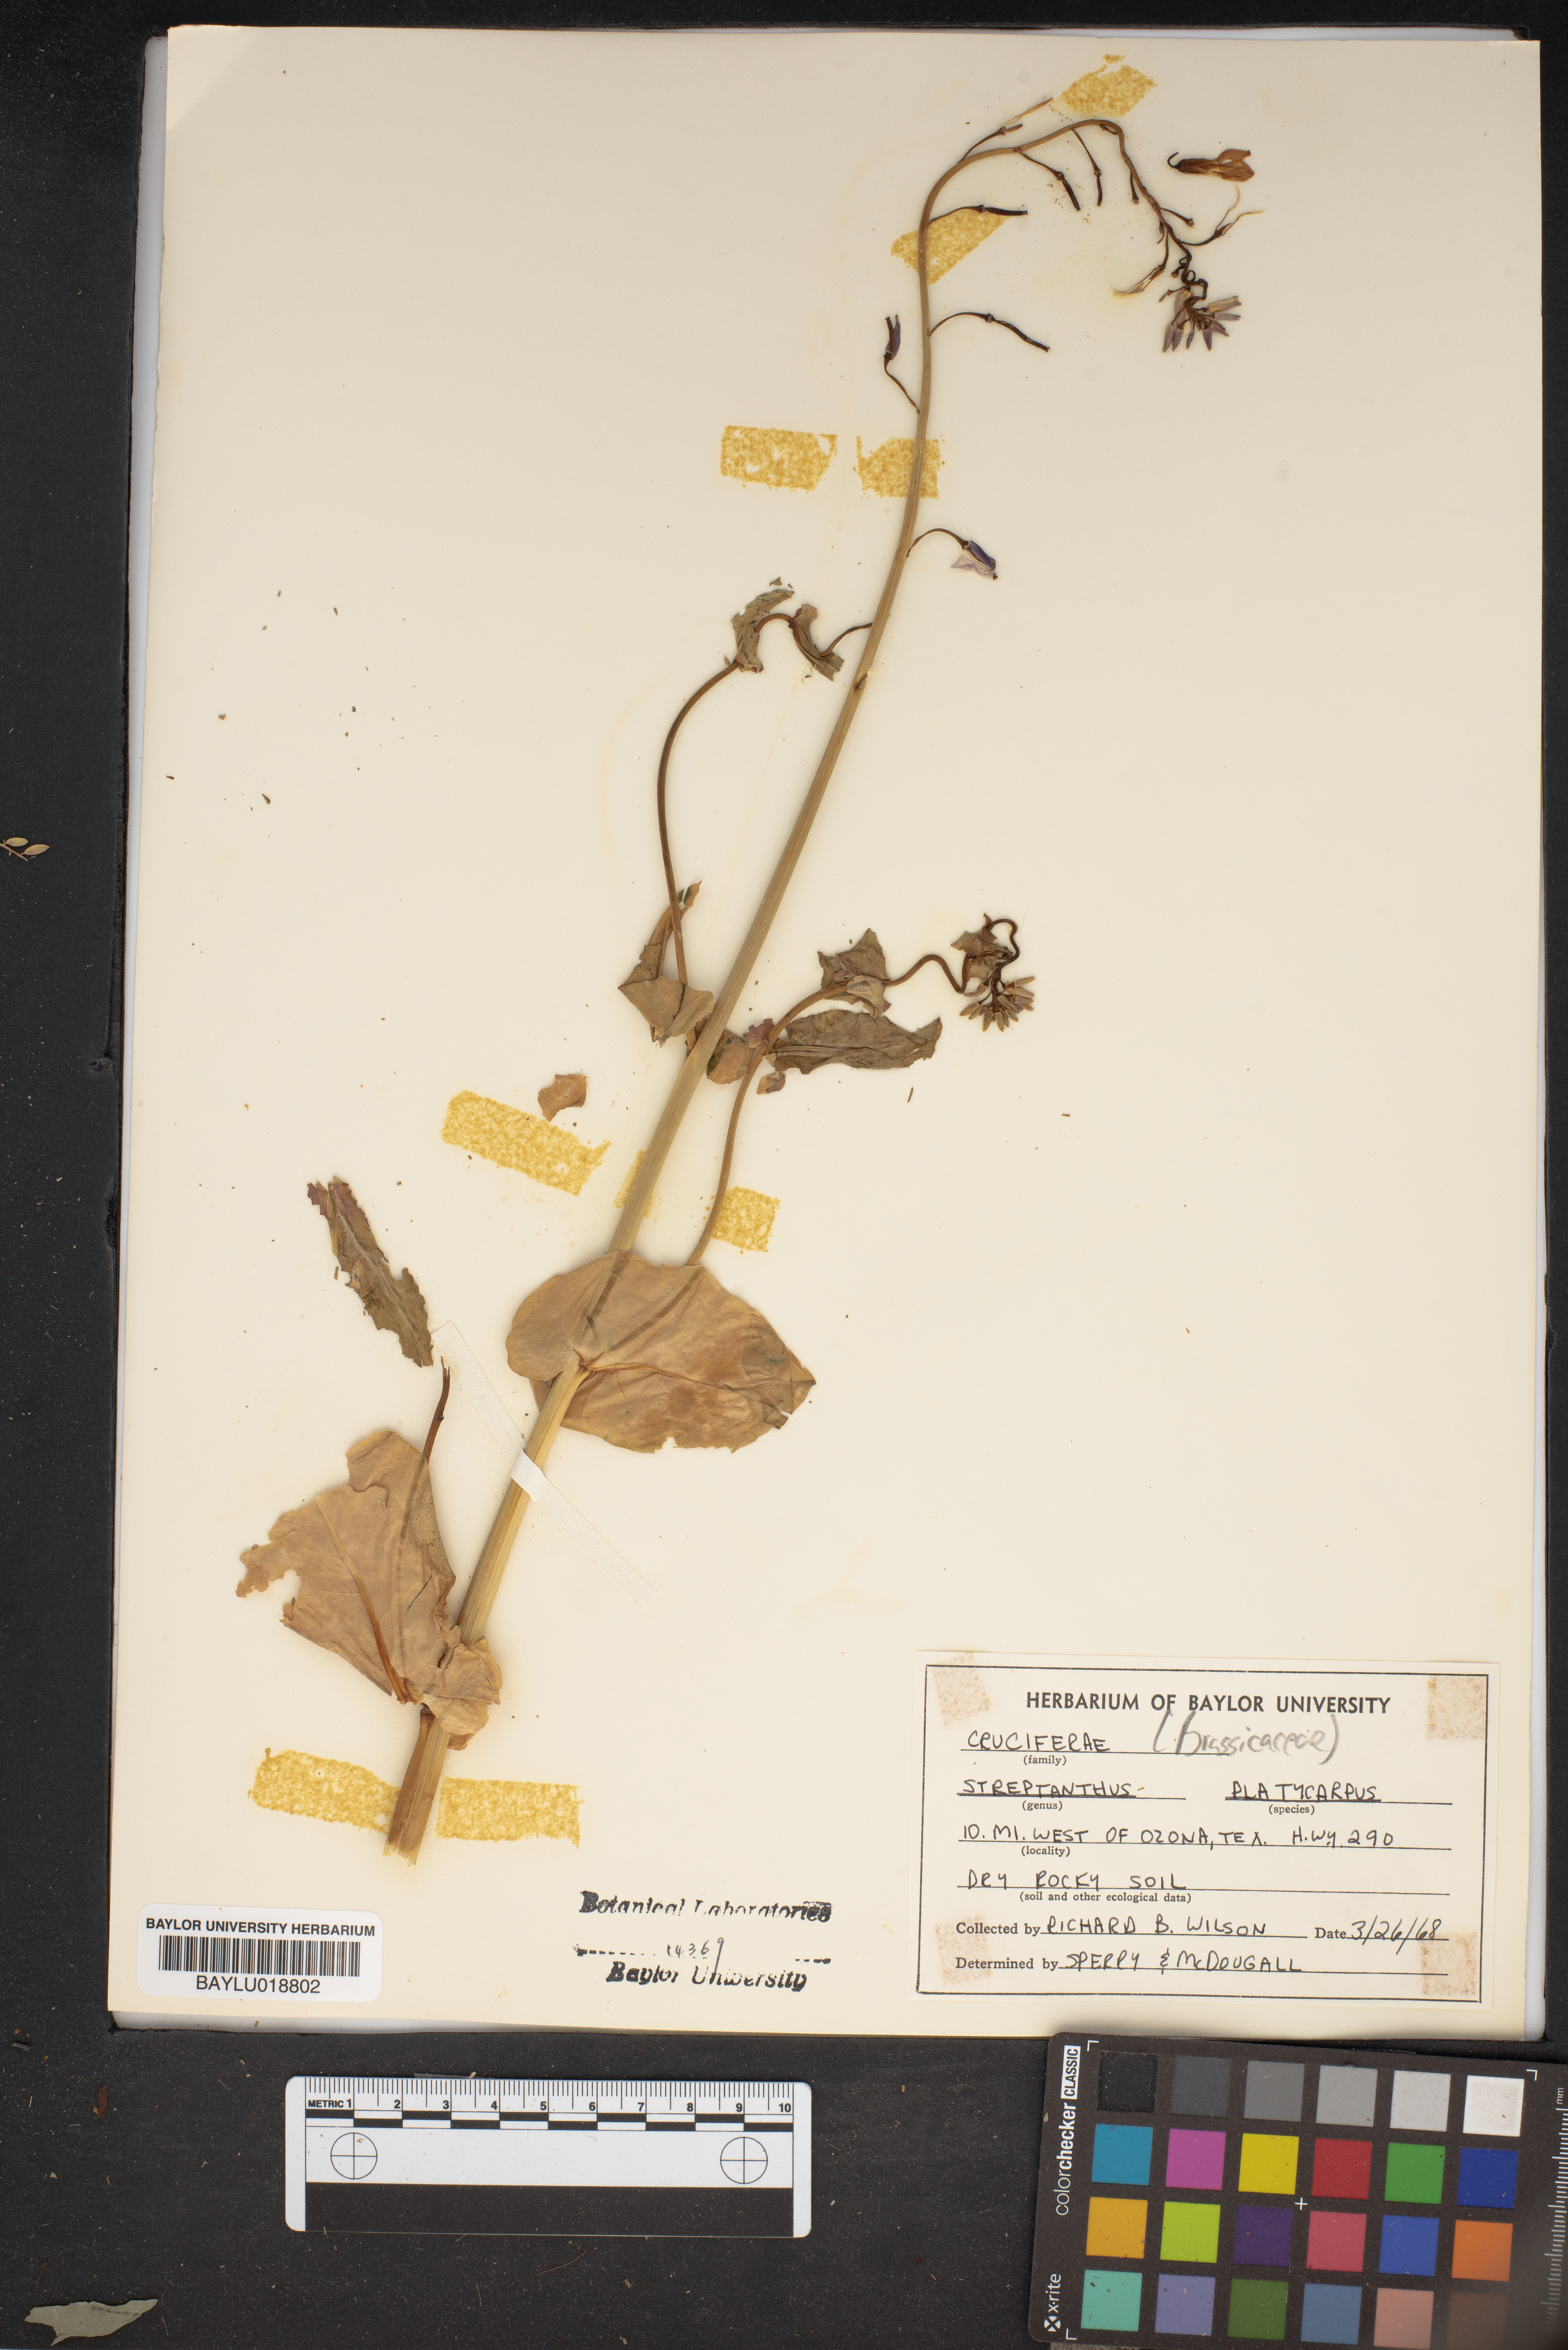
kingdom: Plantae
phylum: Tracheophyta
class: Magnoliopsida
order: Brassicales
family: Brassicaceae
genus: Streptanthus
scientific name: Streptanthus platycarpus
